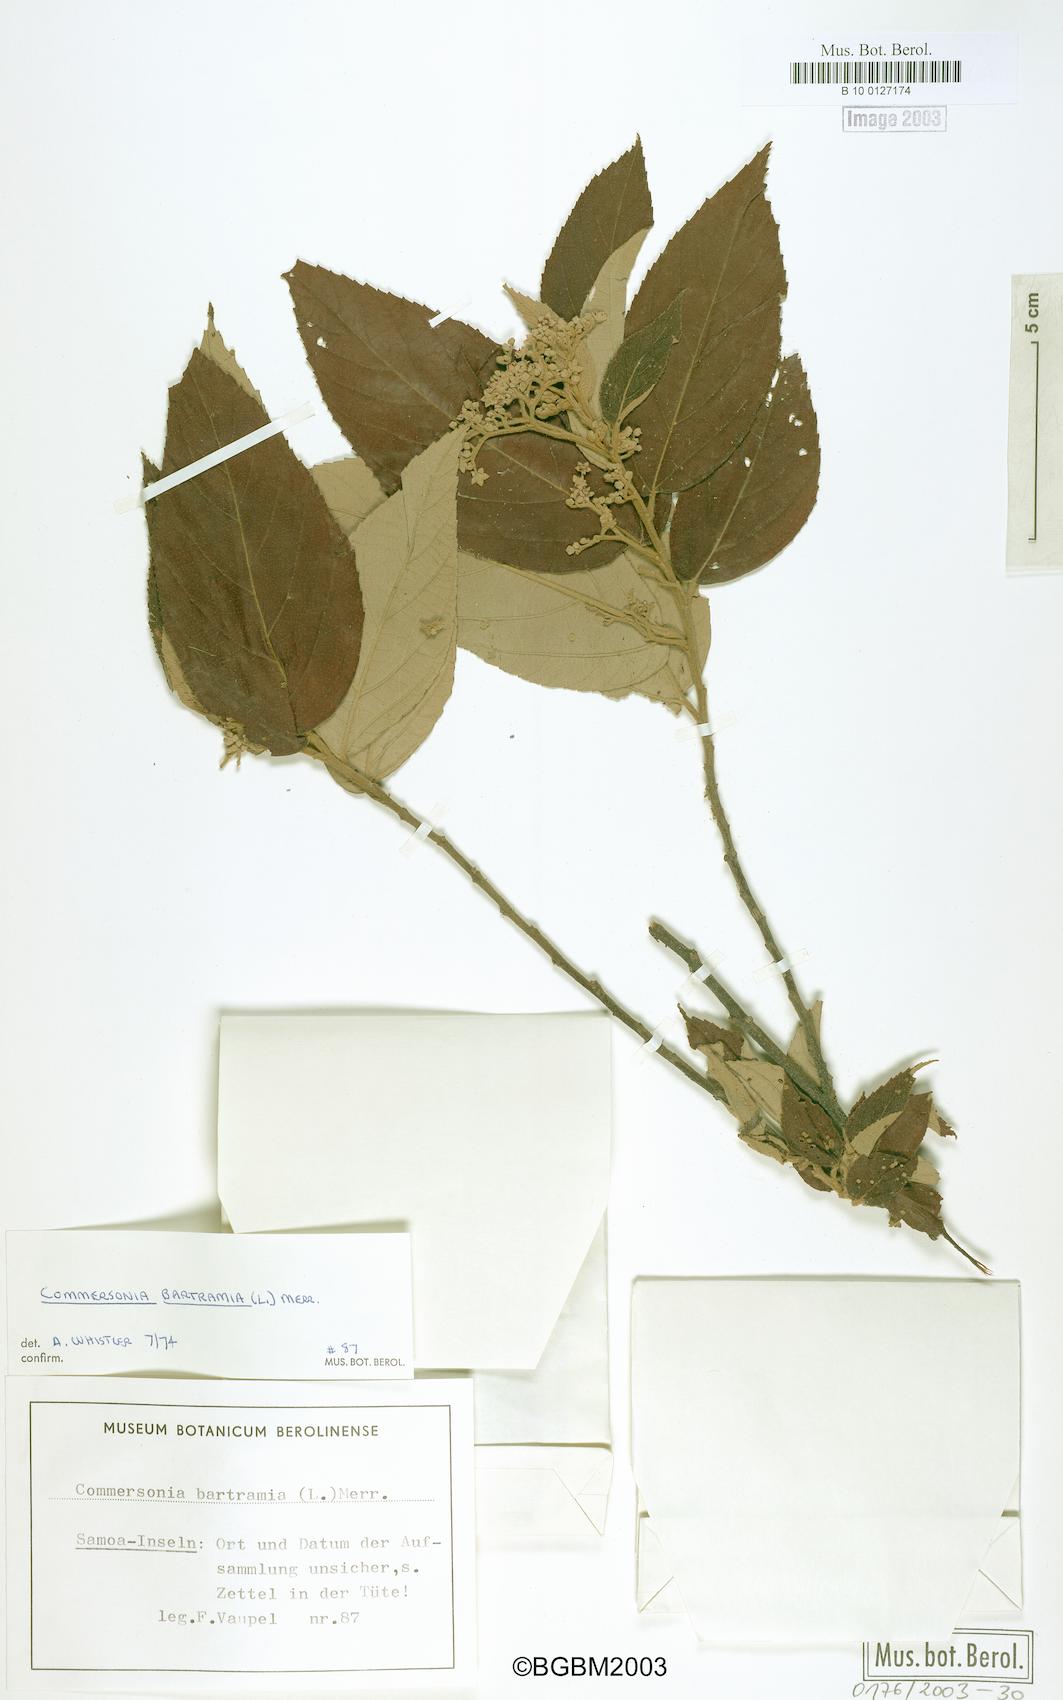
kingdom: Plantae
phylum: Tracheophyta
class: Magnoliopsida
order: Malvales
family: Malvaceae
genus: Commersonia
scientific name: Commersonia bartramia
